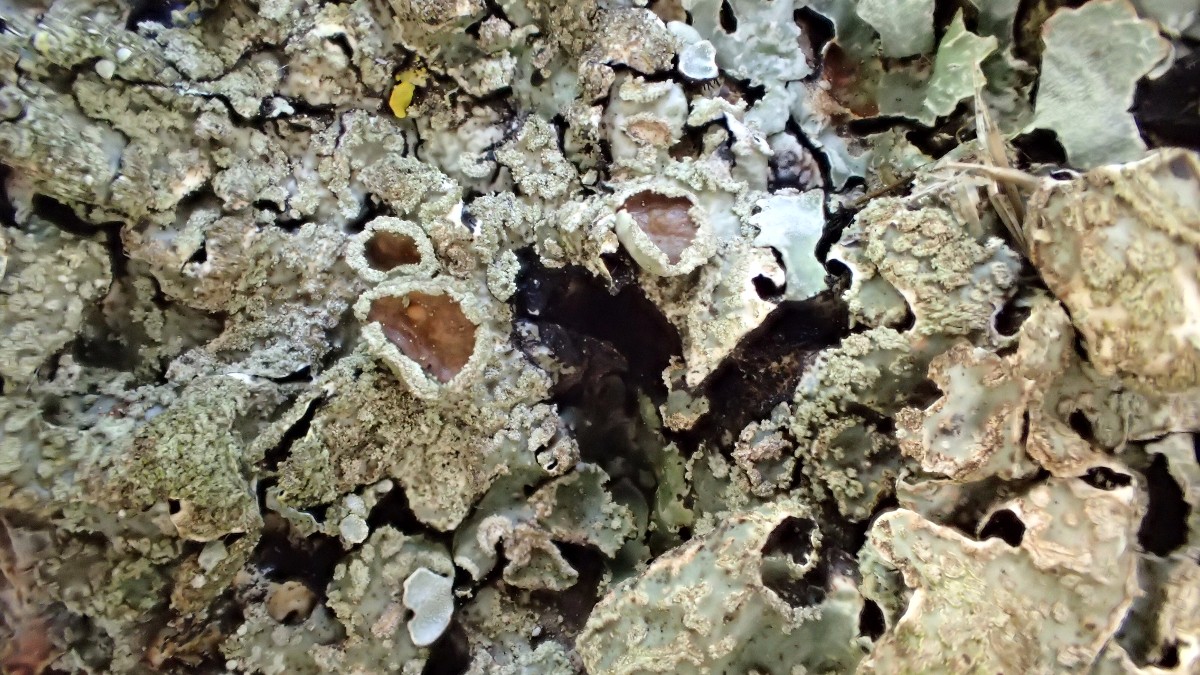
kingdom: Fungi
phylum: Ascomycota
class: Lecanoromycetes
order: Lecanorales
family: Parmeliaceae
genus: Parmelia
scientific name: Parmelia sulcata
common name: rynket skållav
